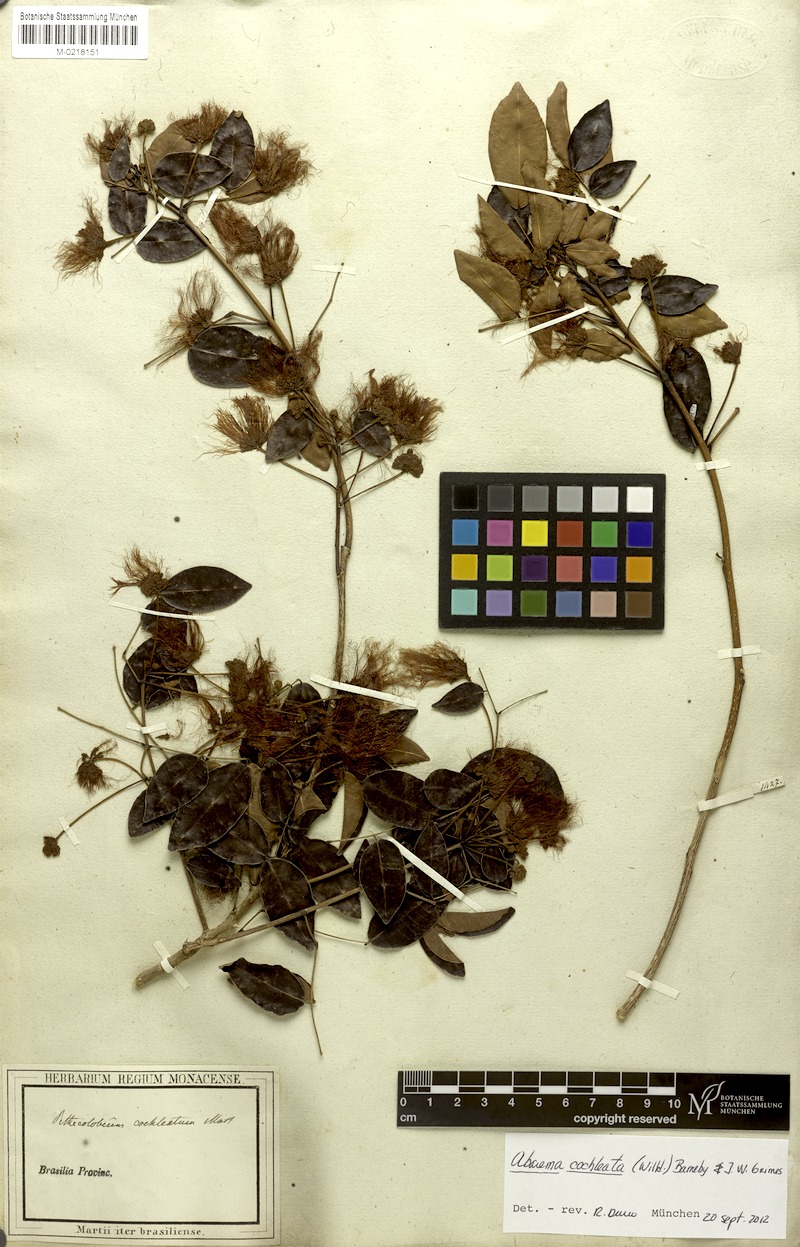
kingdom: Plantae
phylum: Tracheophyta
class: Magnoliopsida
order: Fabales
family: Fabaceae
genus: Jupunba
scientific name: Jupunba cochleata
